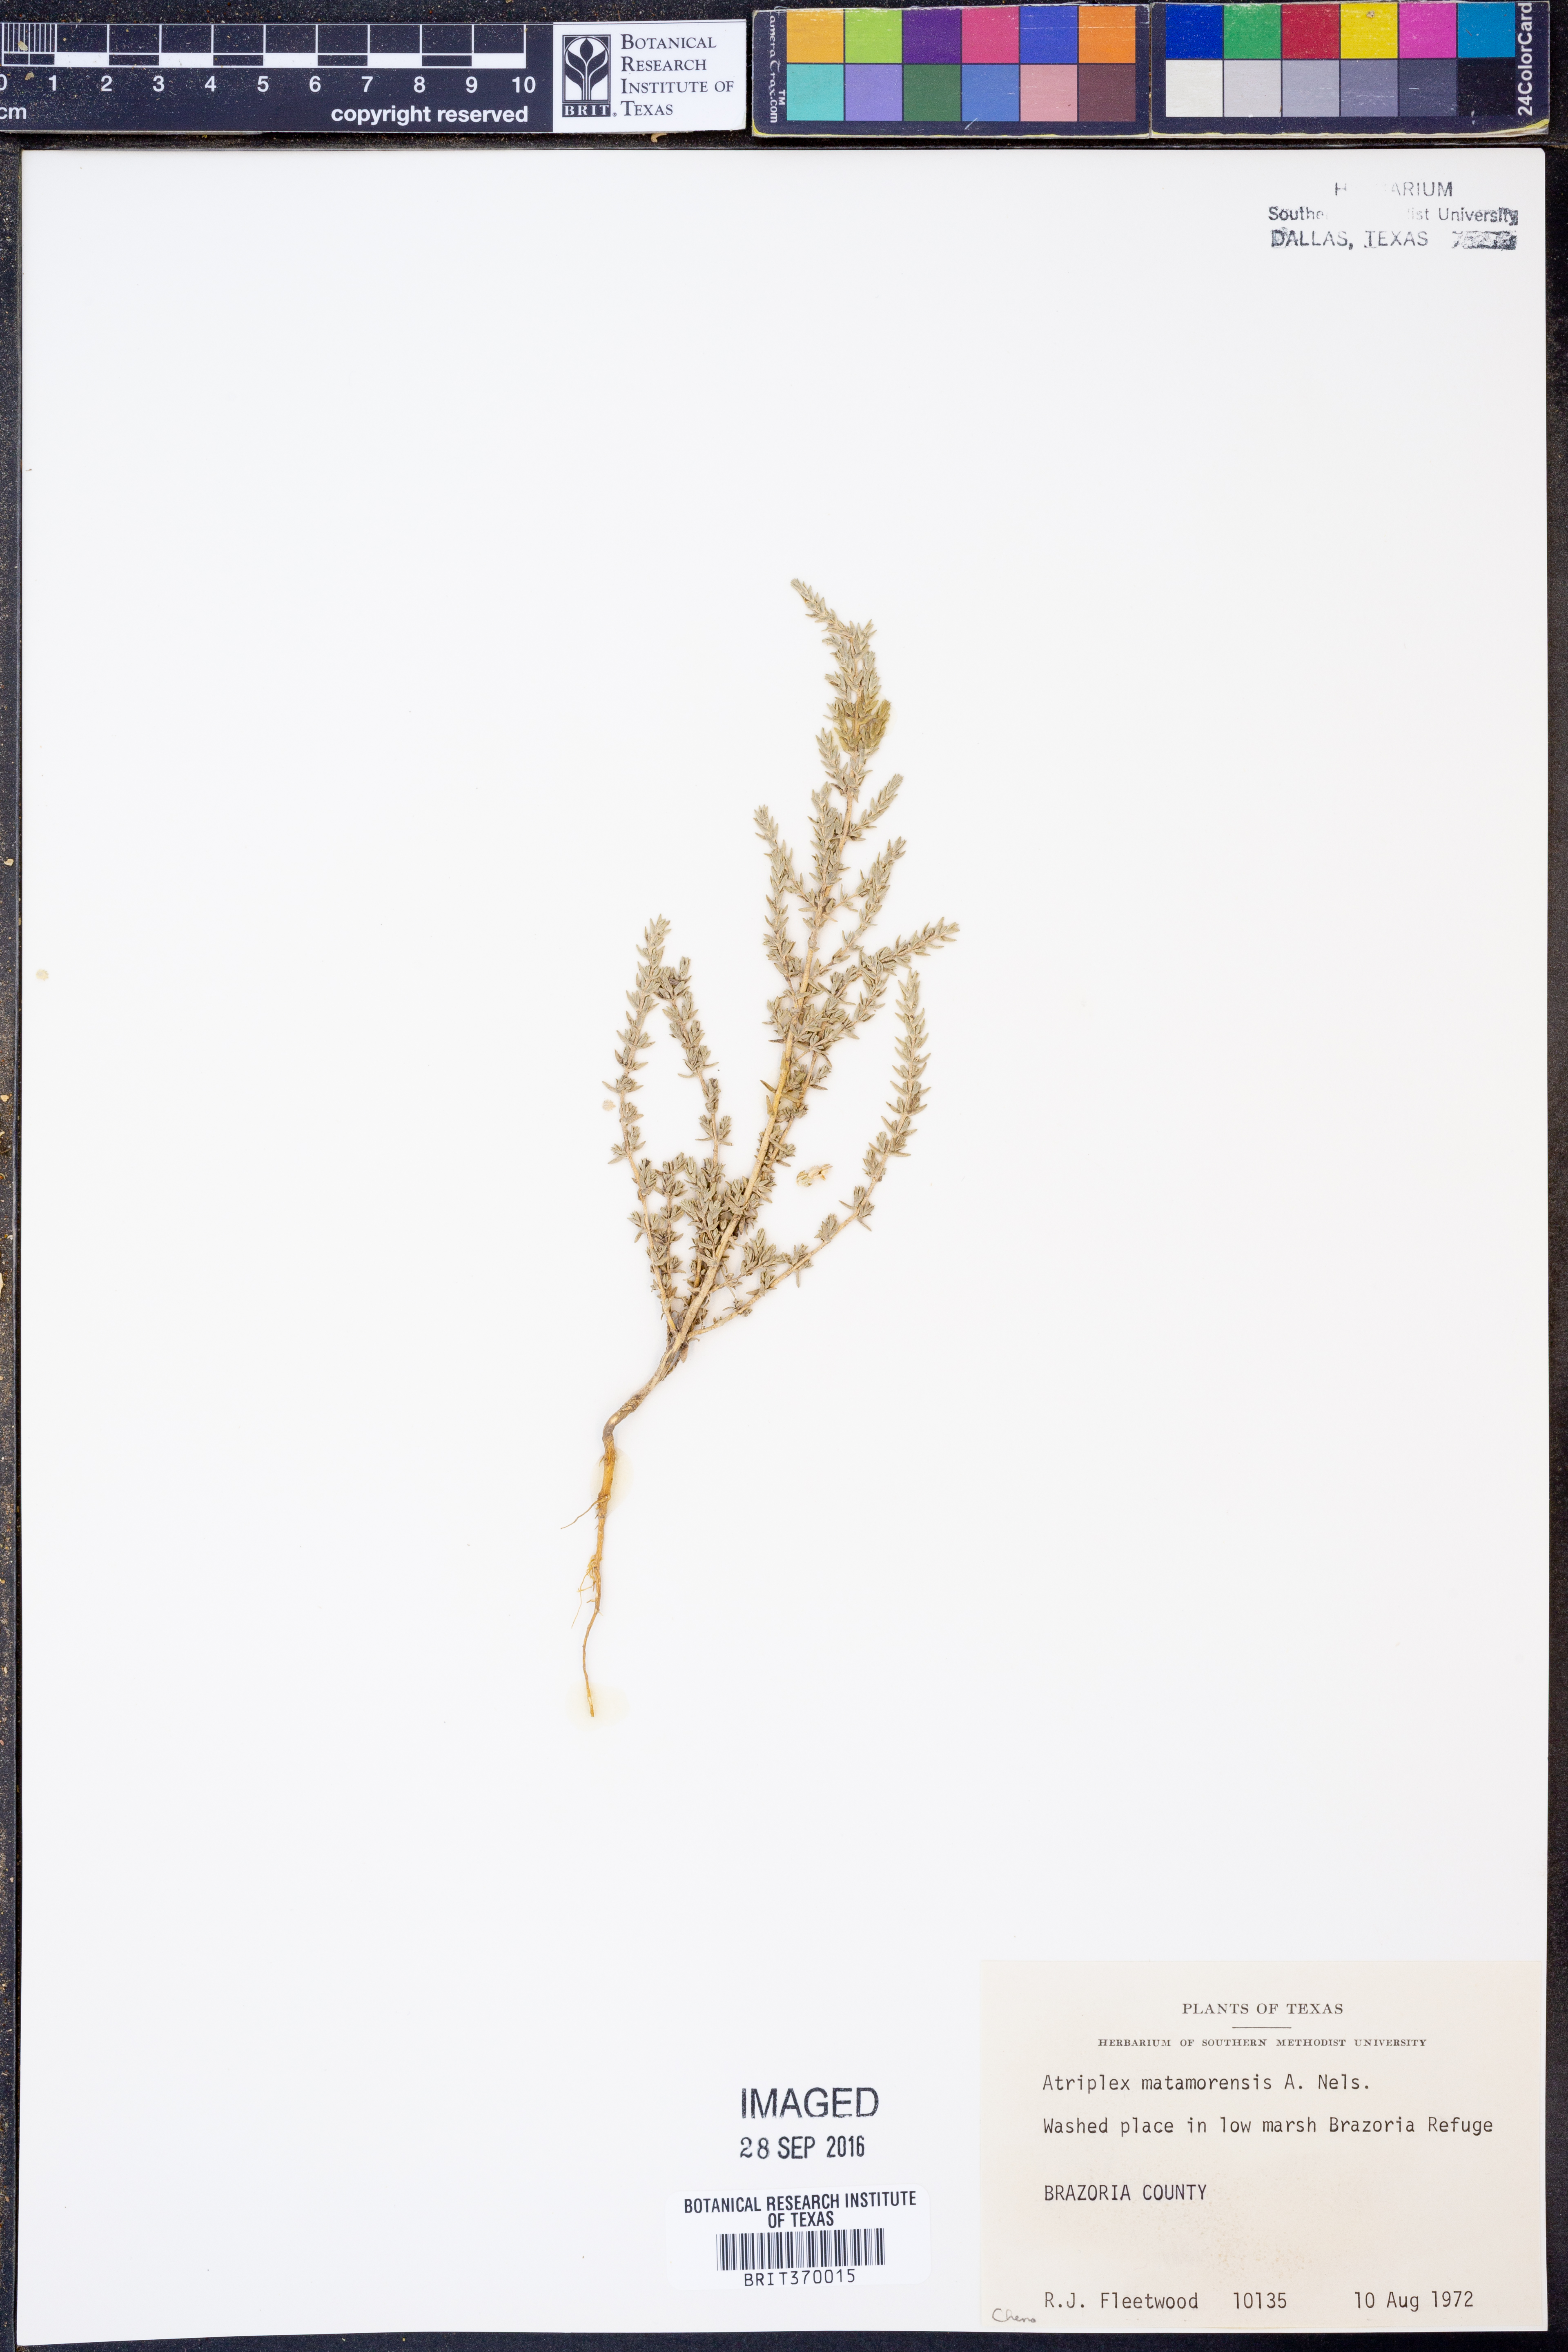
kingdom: Plantae
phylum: Tracheophyta
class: Magnoliopsida
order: Caryophyllales
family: Amaranthaceae
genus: Atriplex
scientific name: Atriplex matamorensis
